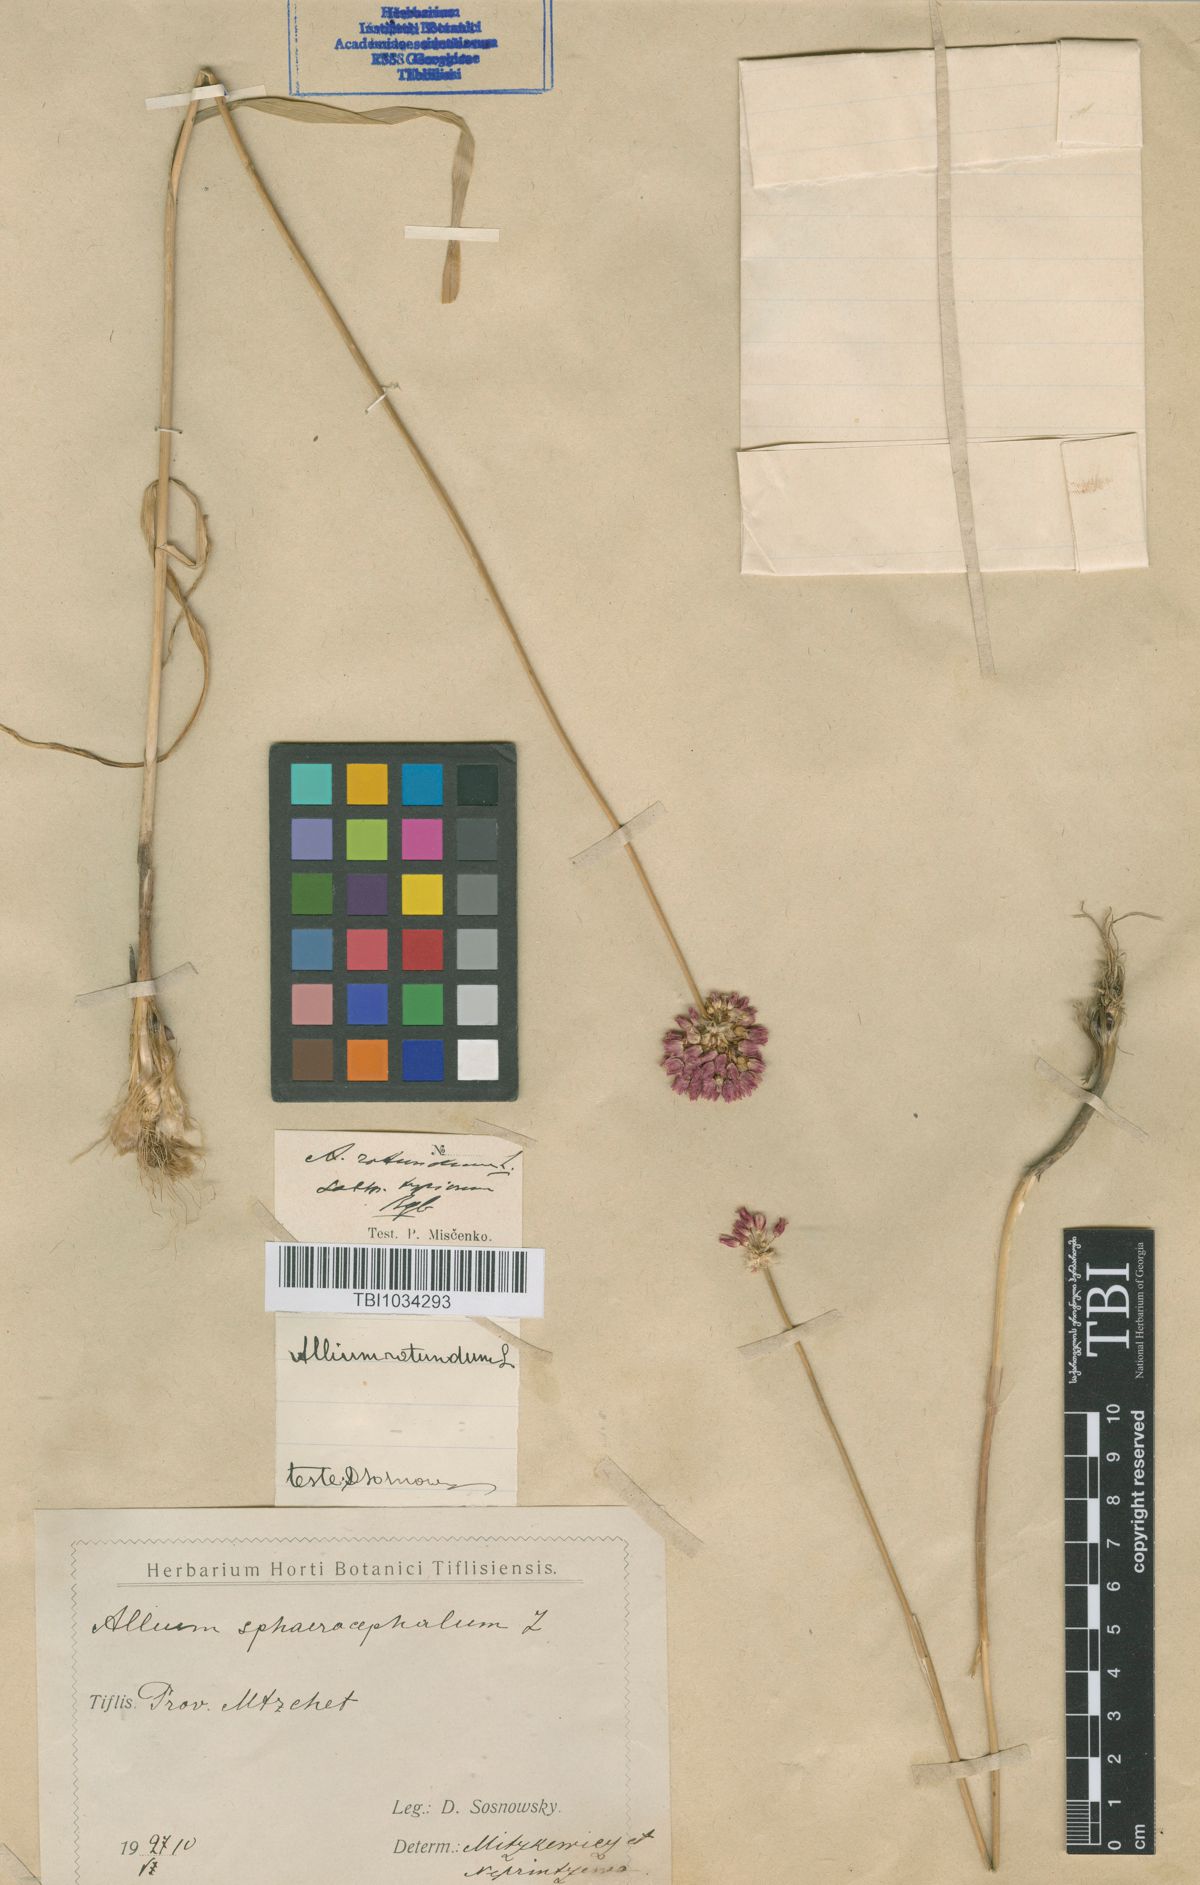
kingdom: Plantae
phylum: Tracheophyta
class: Liliopsida
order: Asparagales
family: Amaryllidaceae
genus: Allium
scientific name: Allium rotundum
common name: Sand leek
